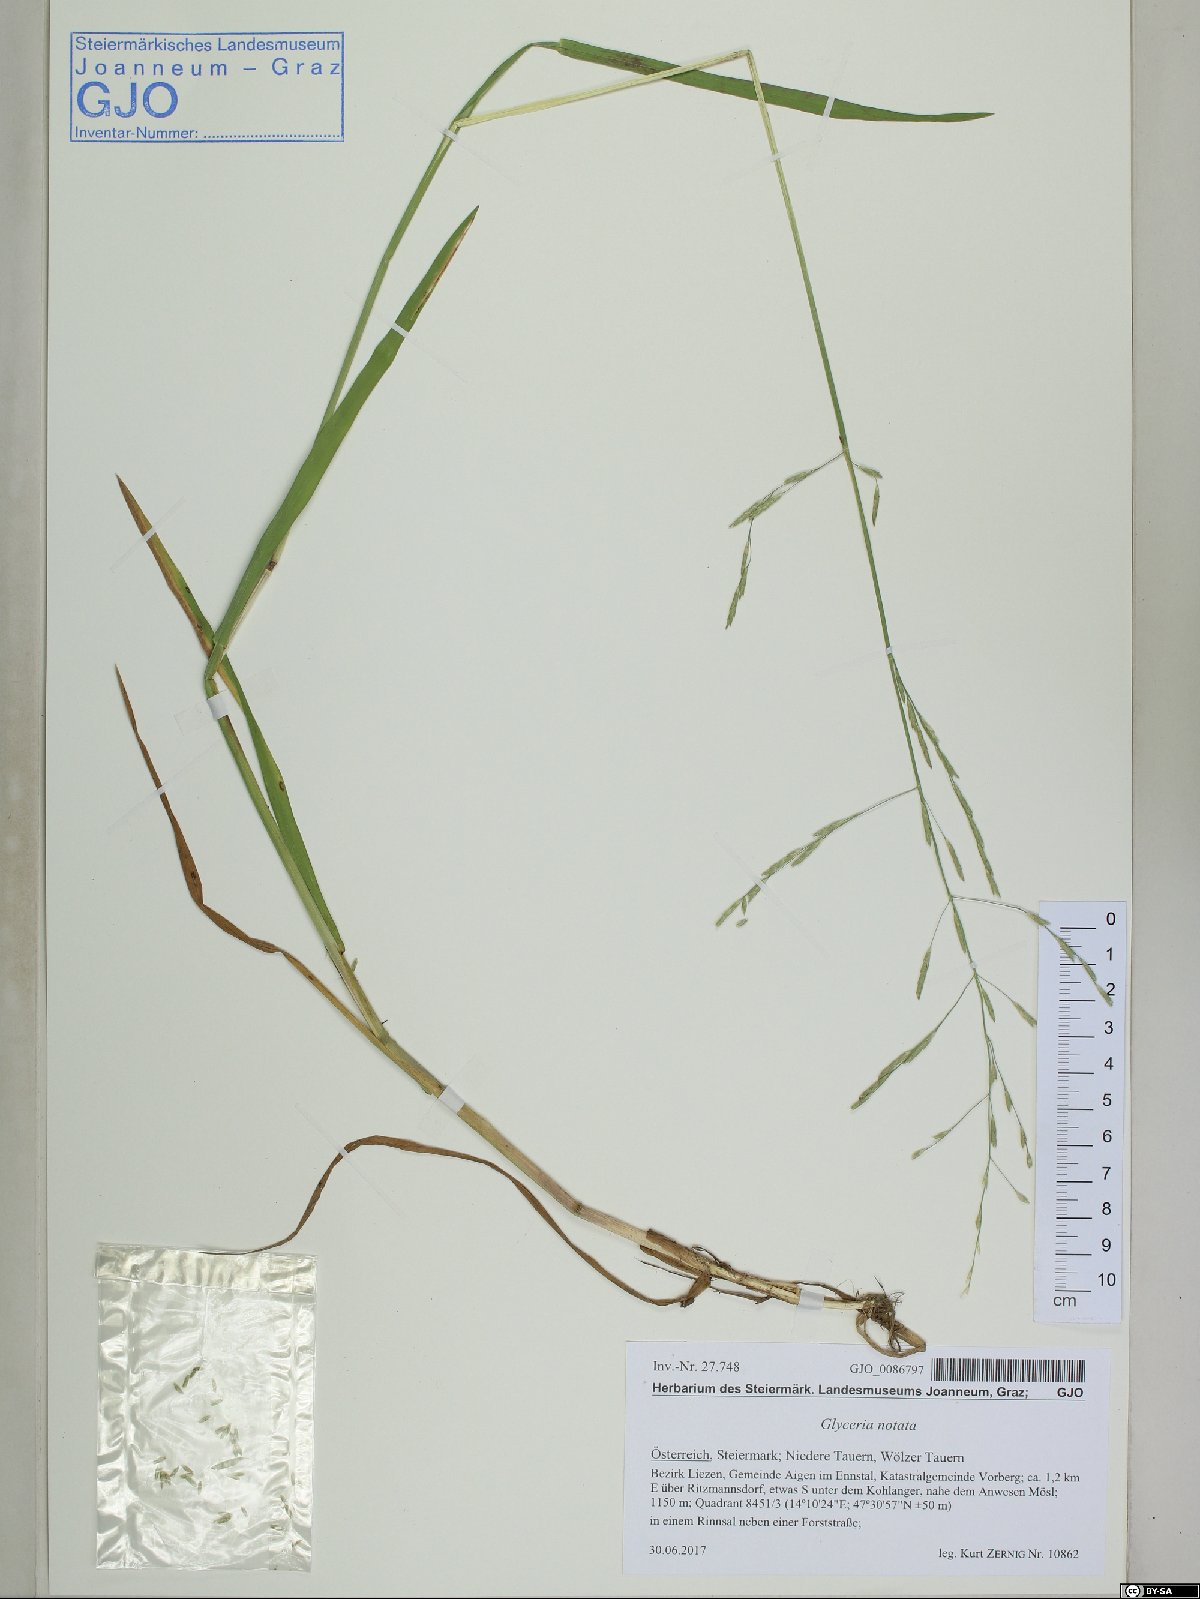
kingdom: Plantae
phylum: Tracheophyta
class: Liliopsida
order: Poales
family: Poaceae
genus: Glyceria
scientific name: Glyceria notata
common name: Plicate sweet-grass
